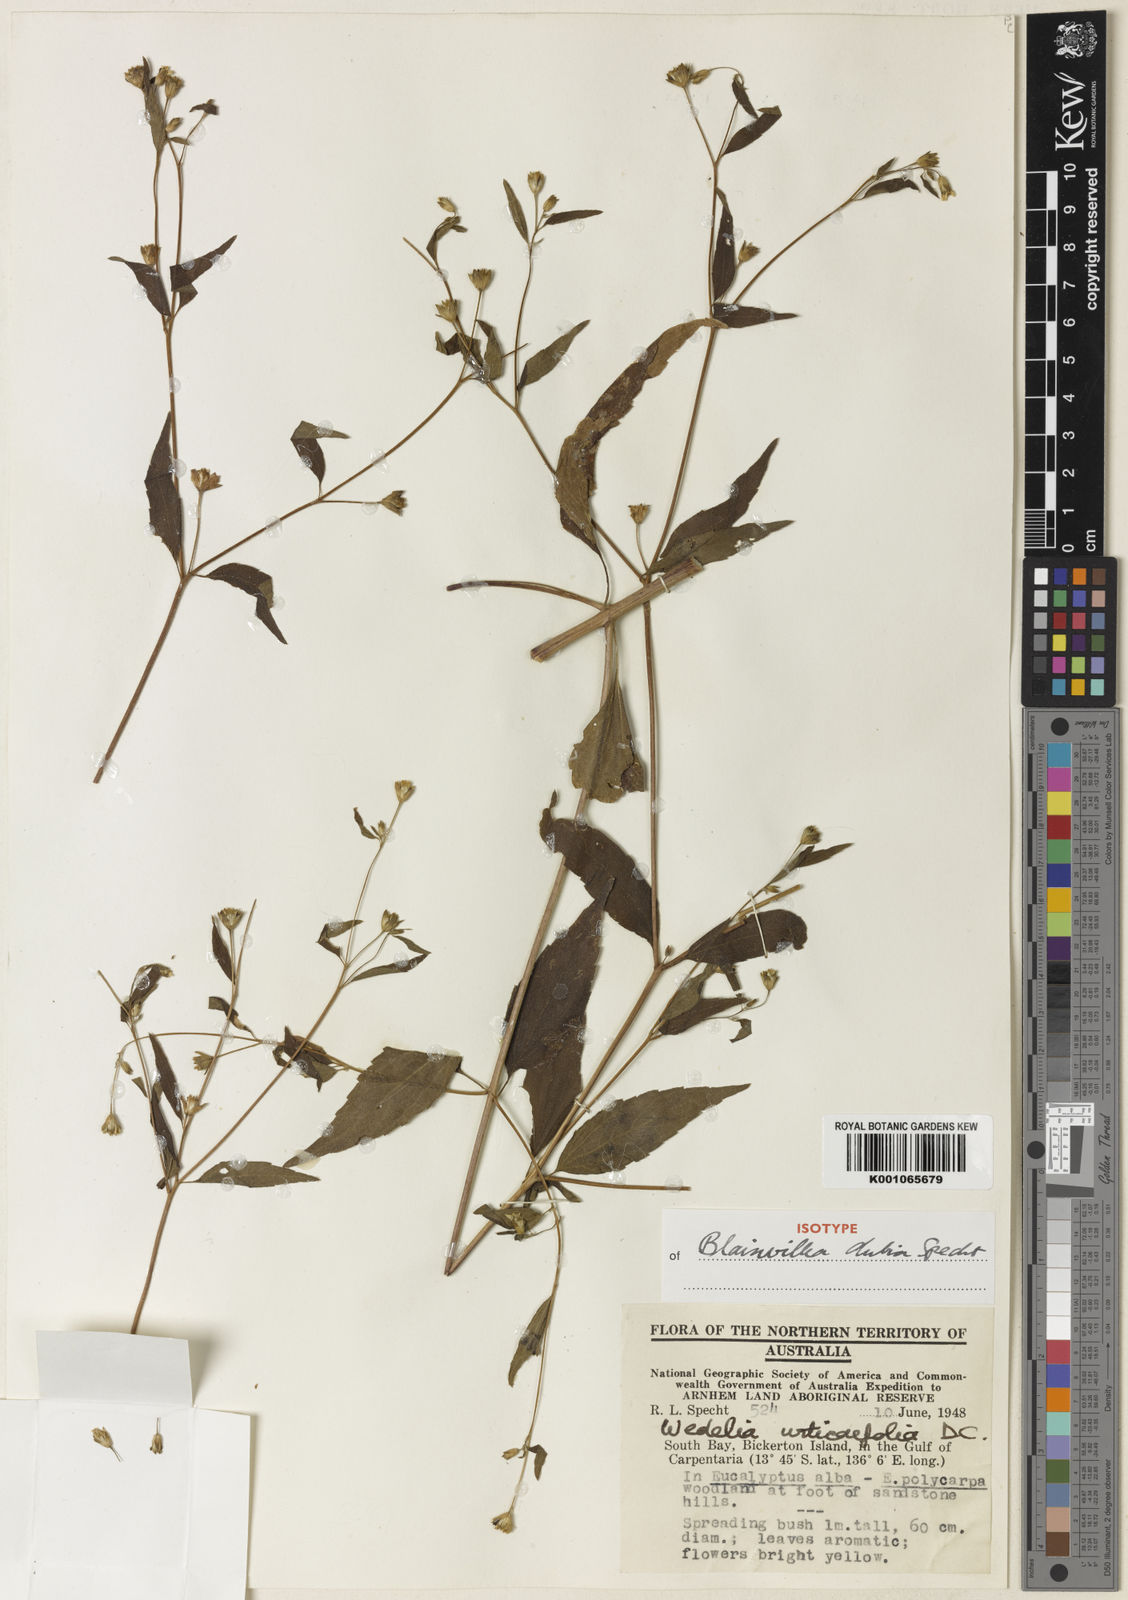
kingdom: Plantae
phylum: Tracheophyta
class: Magnoliopsida
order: Asterales
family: Asteraceae
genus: Blainvillea
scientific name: Blainvillea cunninghamii
